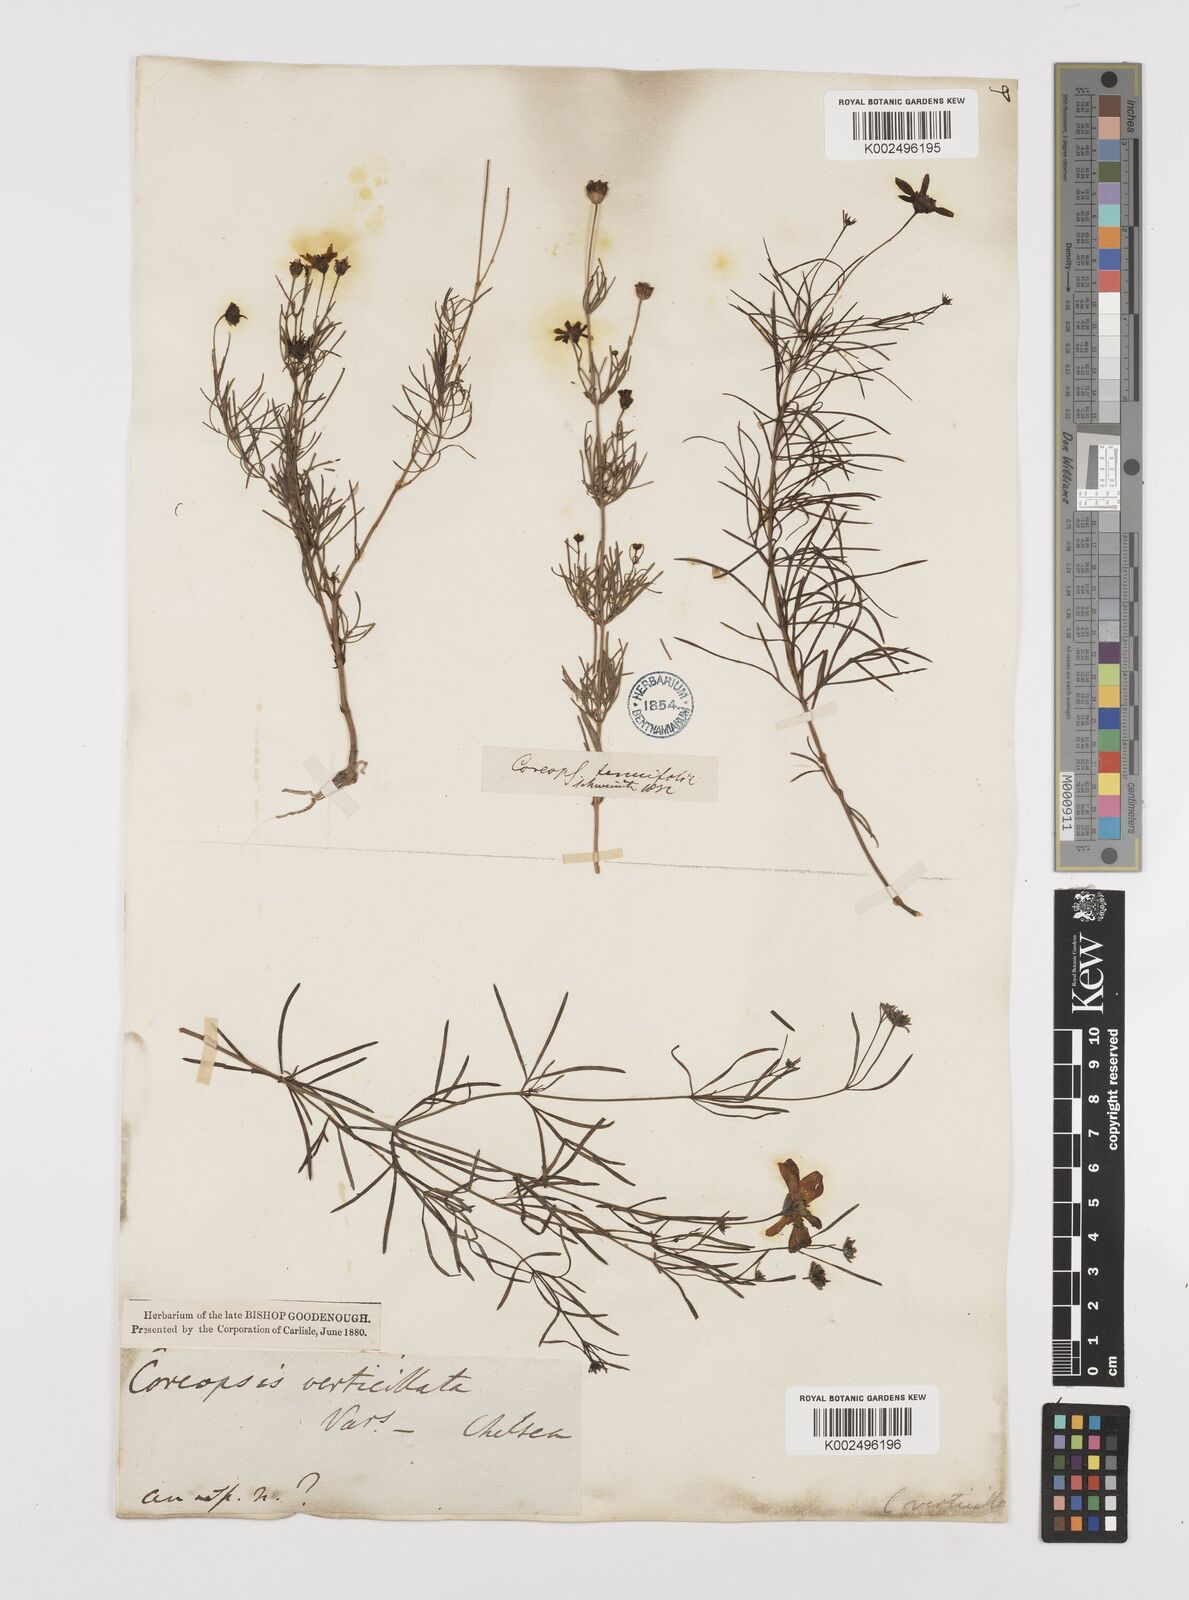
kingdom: Plantae
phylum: Tracheophyta
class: Magnoliopsida
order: Asterales
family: Asteraceae
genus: Coreopsis
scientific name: Coreopsis verticillata
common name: Whorled tickseed
